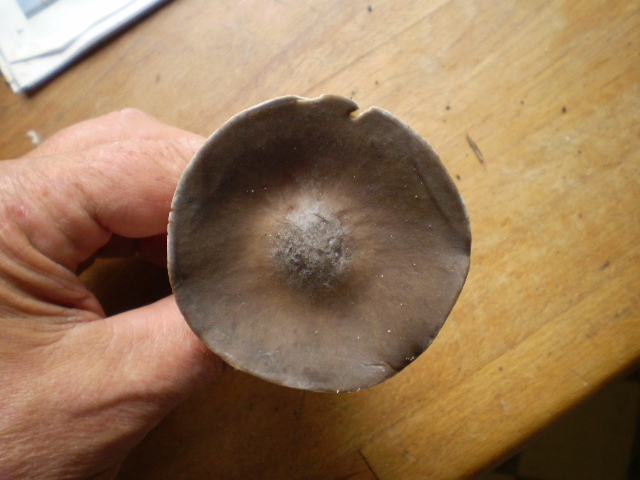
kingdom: Fungi
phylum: Basidiomycota
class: Agaricomycetes
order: Agaricales
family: Tricholomataceae
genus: Melanoleuca
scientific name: Melanoleuca melaleuca
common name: sorthvid munkehat
